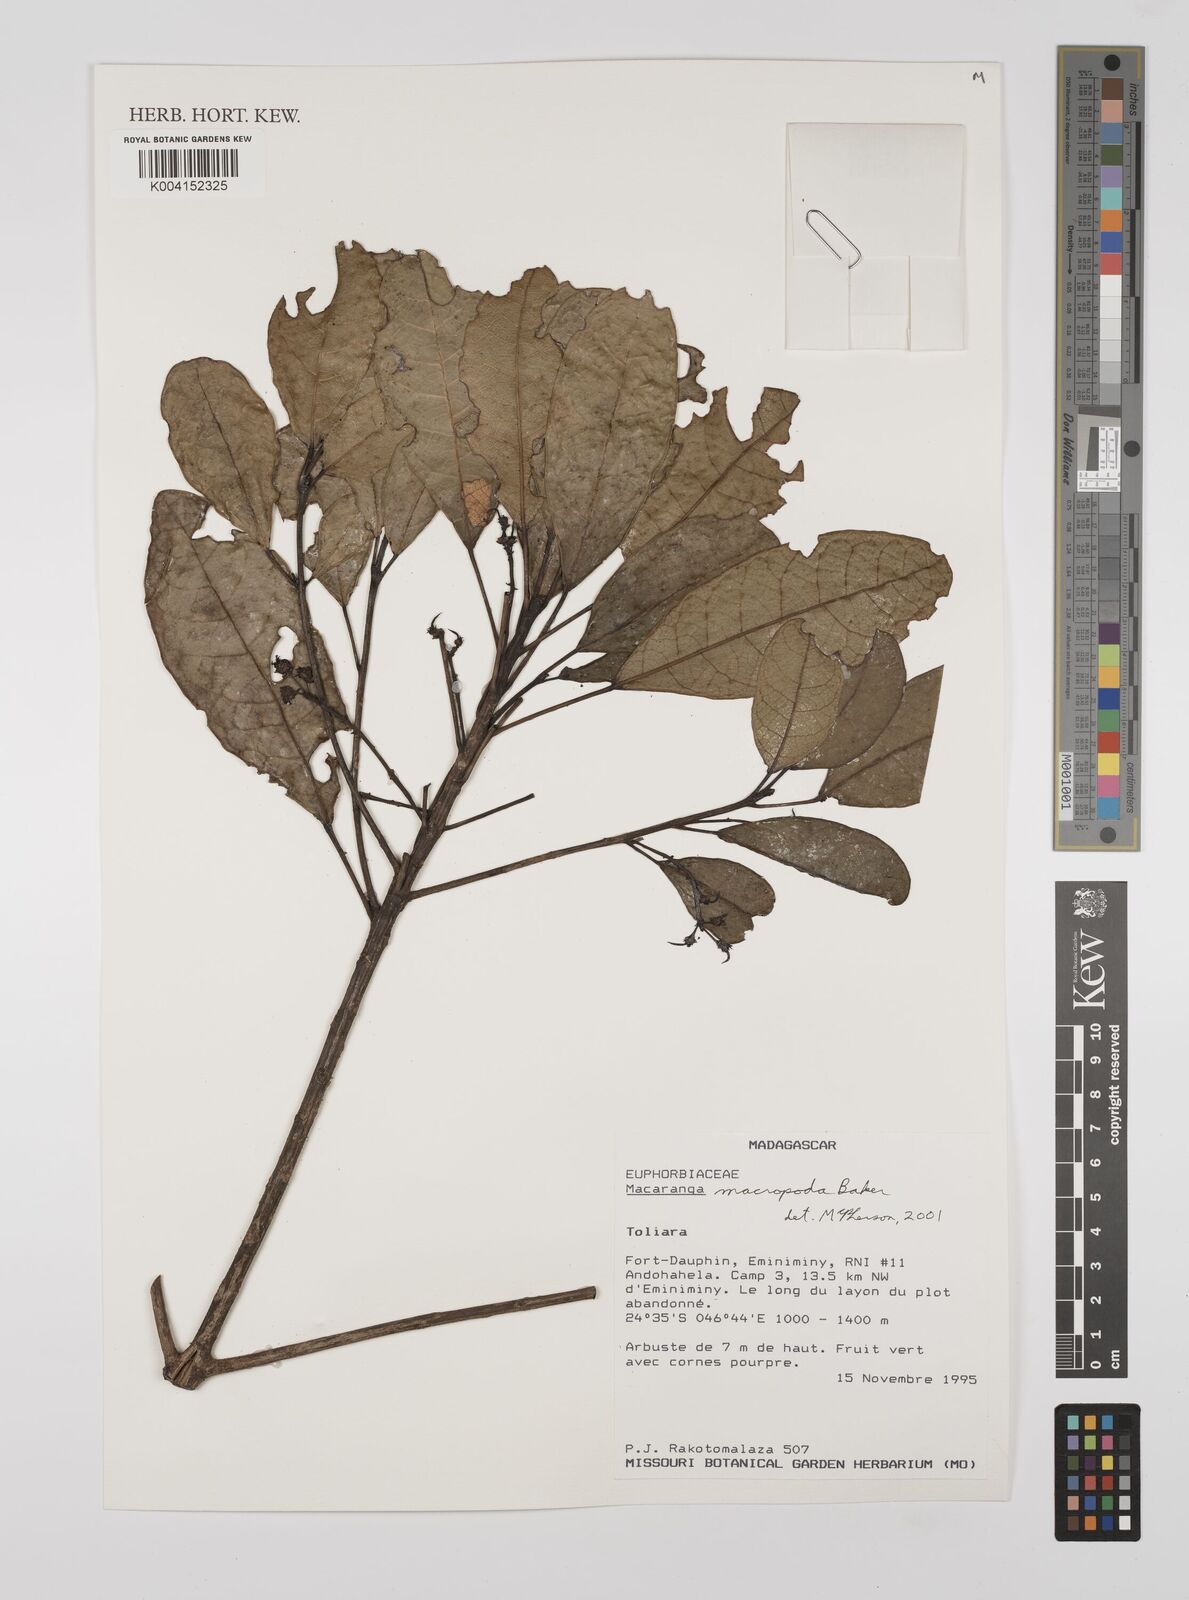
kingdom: Plantae
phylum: Tracheophyta
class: Magnoliopsida
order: Malpighiales
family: Euphorbiaceae
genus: Macaranga
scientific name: Macaranga macropoda
